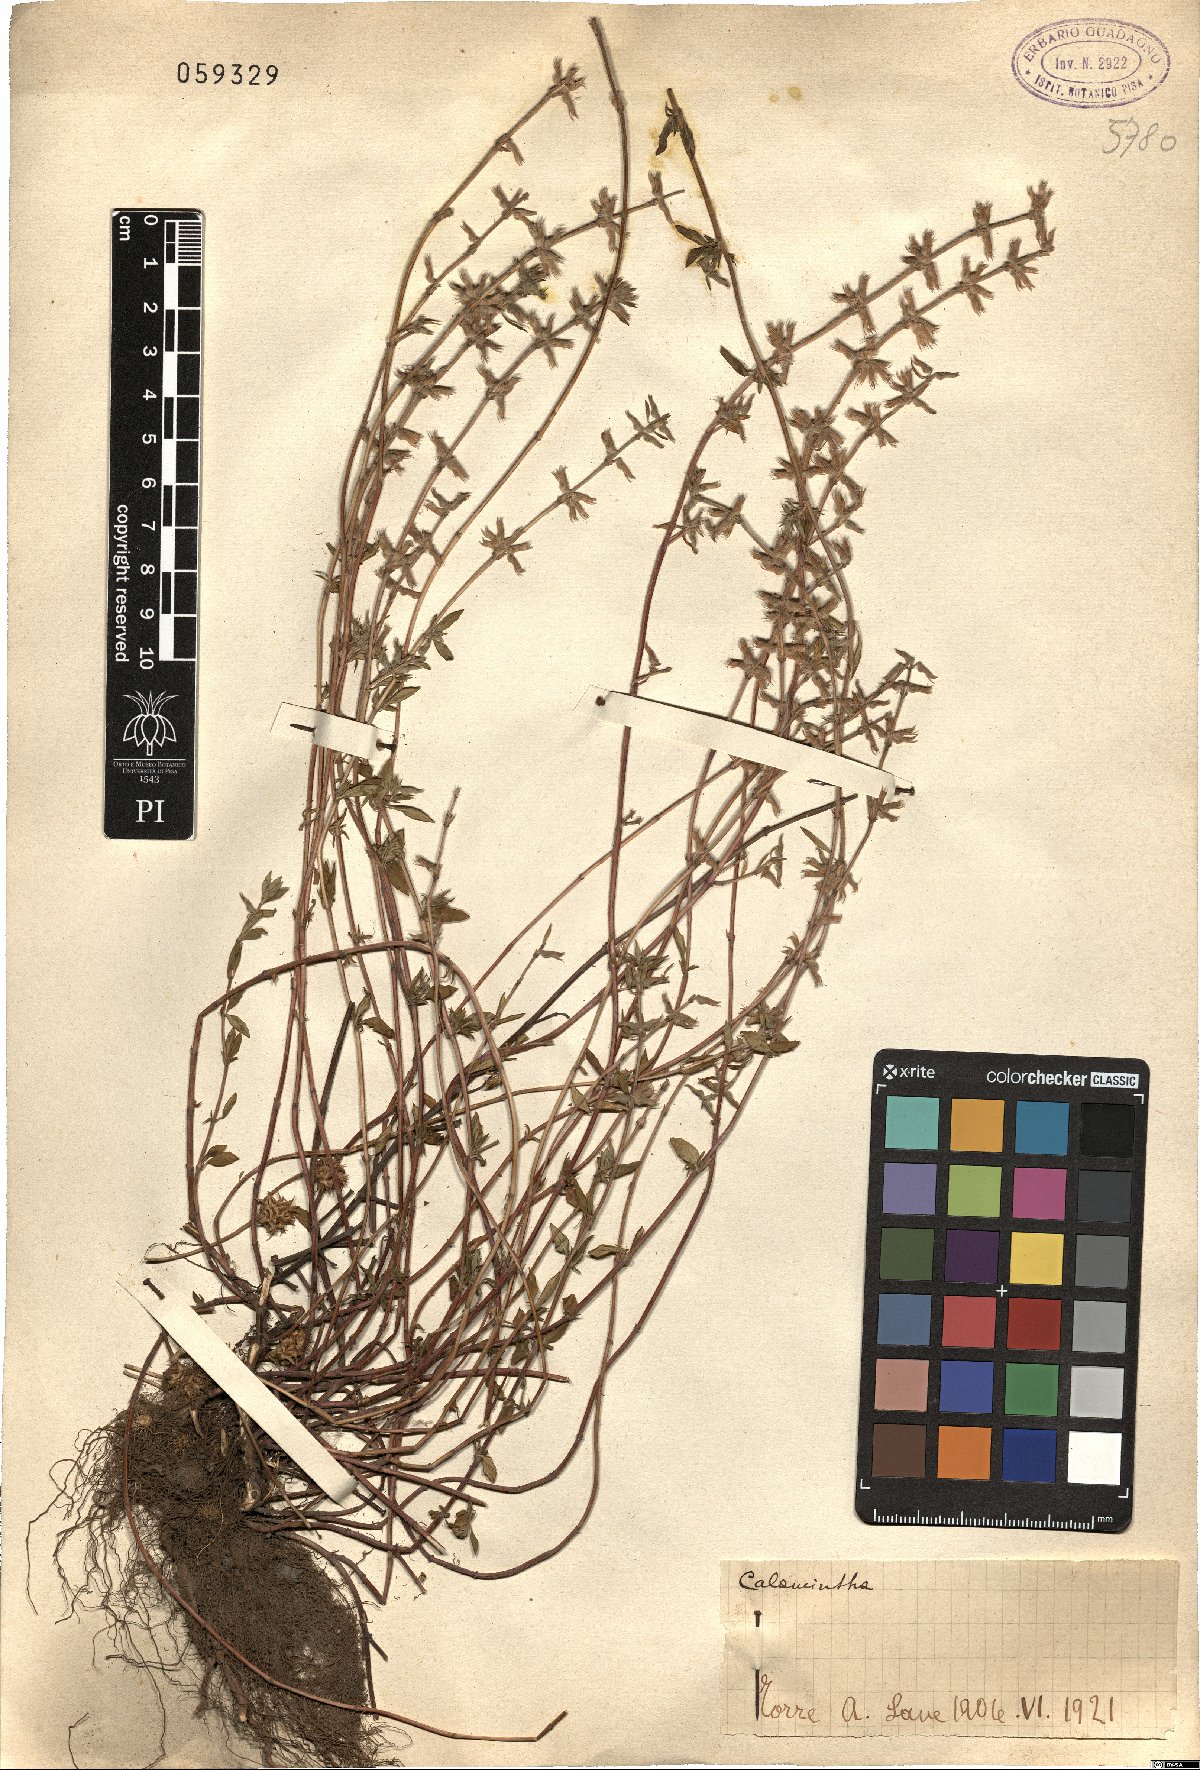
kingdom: Plantae
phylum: Tracheophyta
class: Magnoliopsida
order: Lamiales
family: Lamiaceae
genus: Calamintha
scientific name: Calamintha
